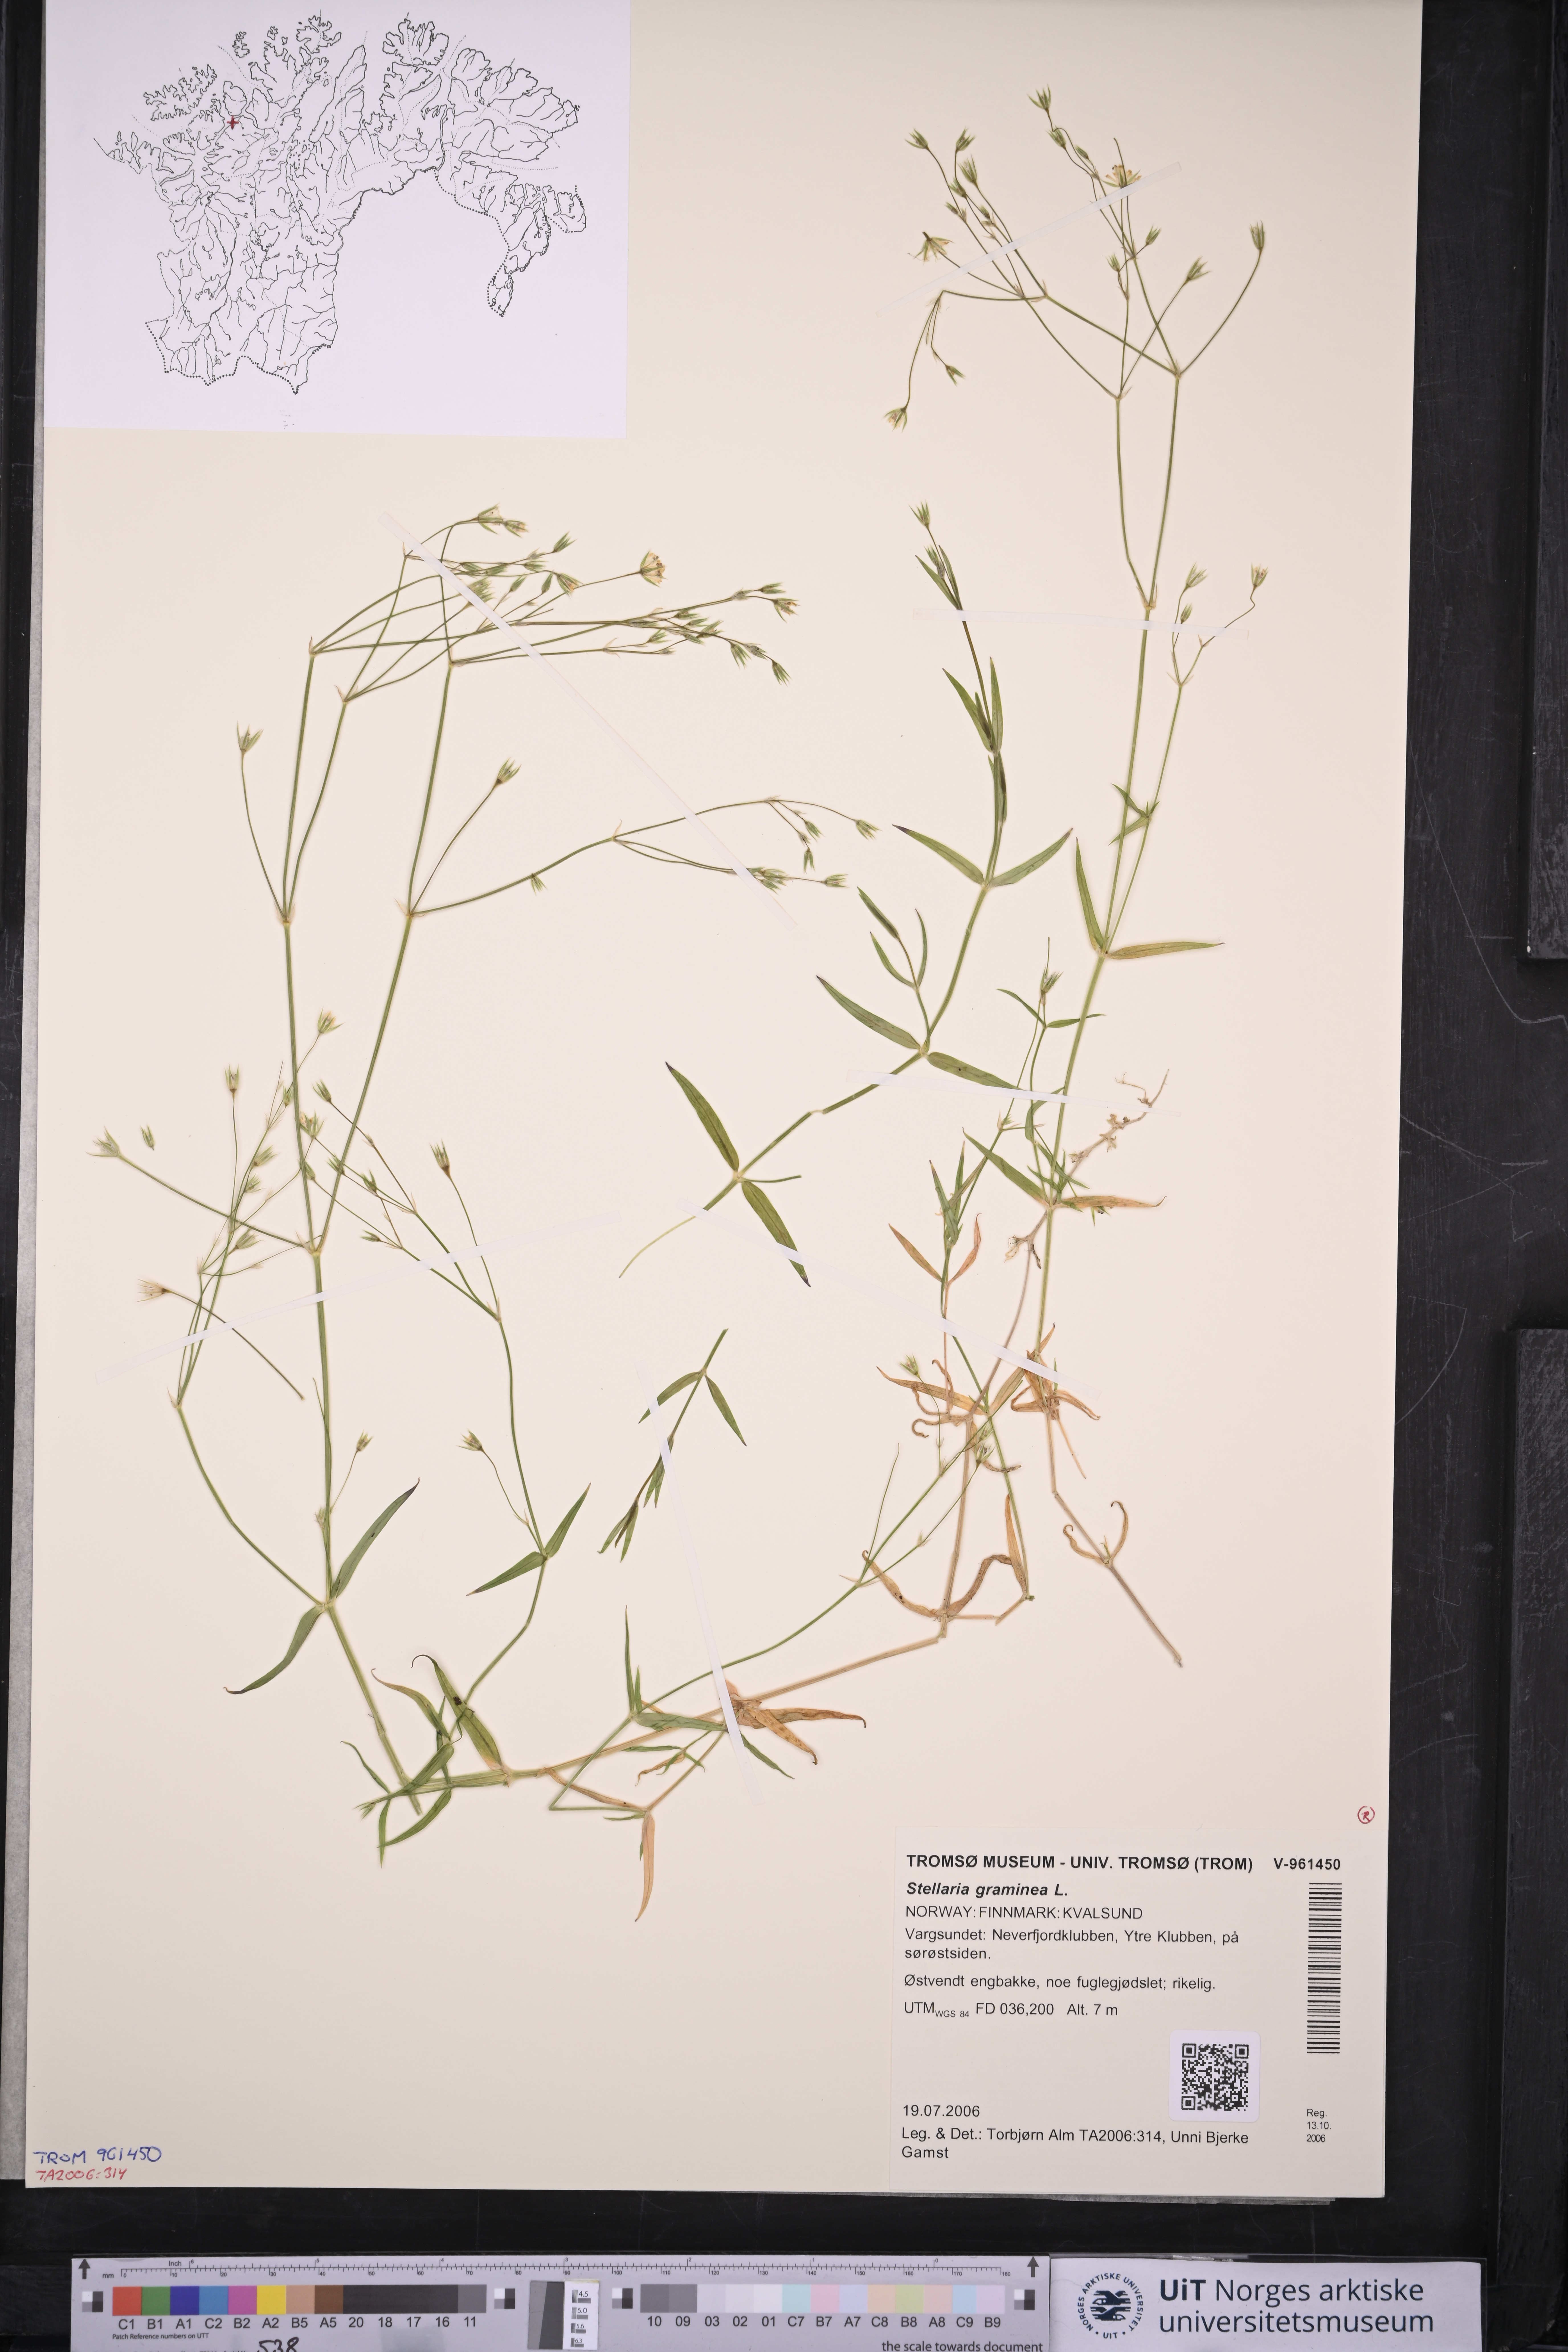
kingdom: Plantae
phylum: Tracheophyta
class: Magnoliopsida
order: Caryophyllales
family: Caryophyllaceae
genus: Stellaria
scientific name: Stellaria graminea
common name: Grass-like starwort
